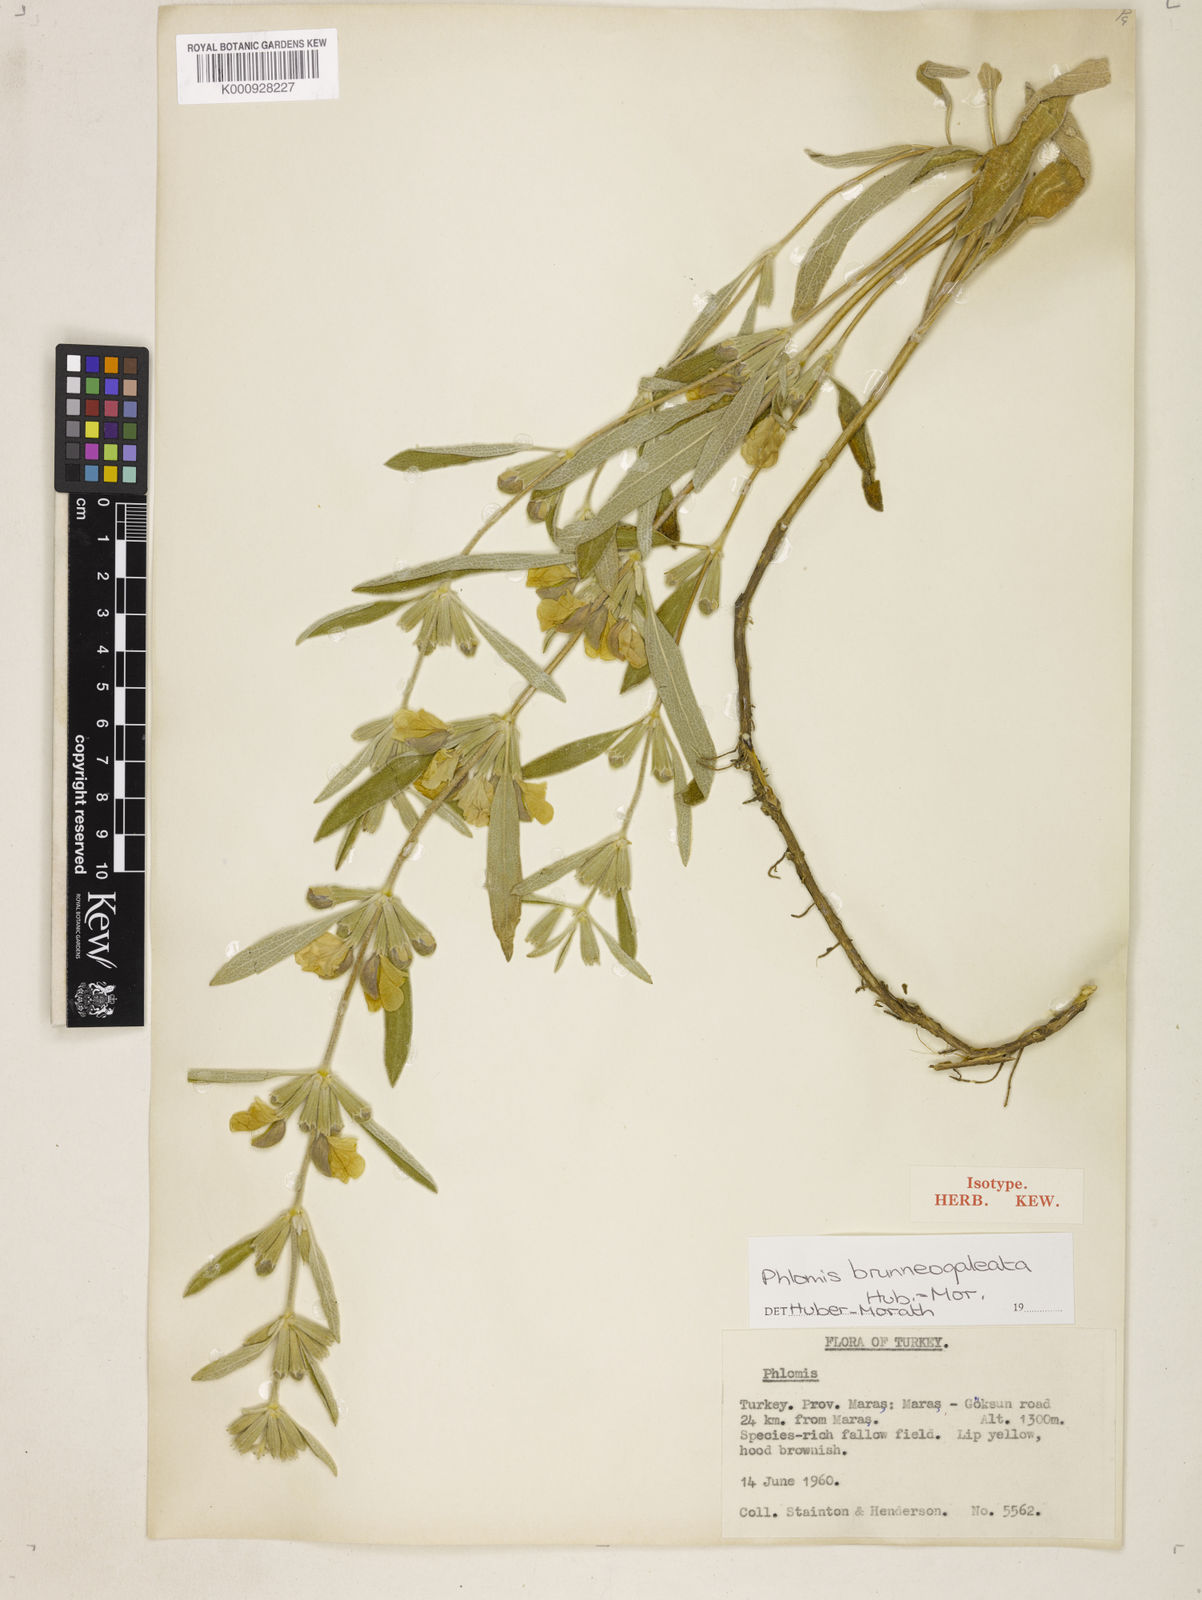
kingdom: Plantae
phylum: Tracheophyta
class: Magnoliopsida
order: Lamiales
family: Lamiaceae
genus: Phlomis
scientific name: Phlomis brunneogaleata
